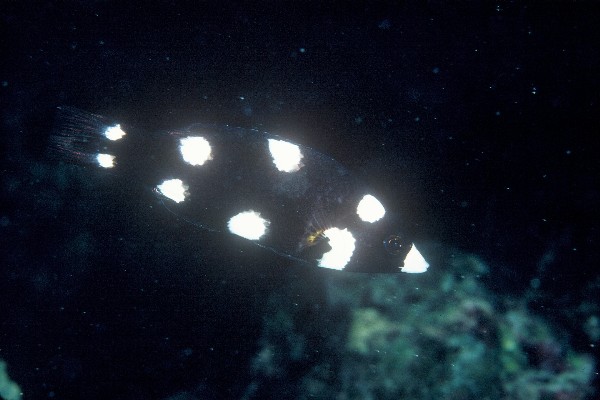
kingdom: Animalia
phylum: Chordata
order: Perciformes
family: Labridae
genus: Bodianus
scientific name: Bodianus axillaris
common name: Axilspot hogfish
